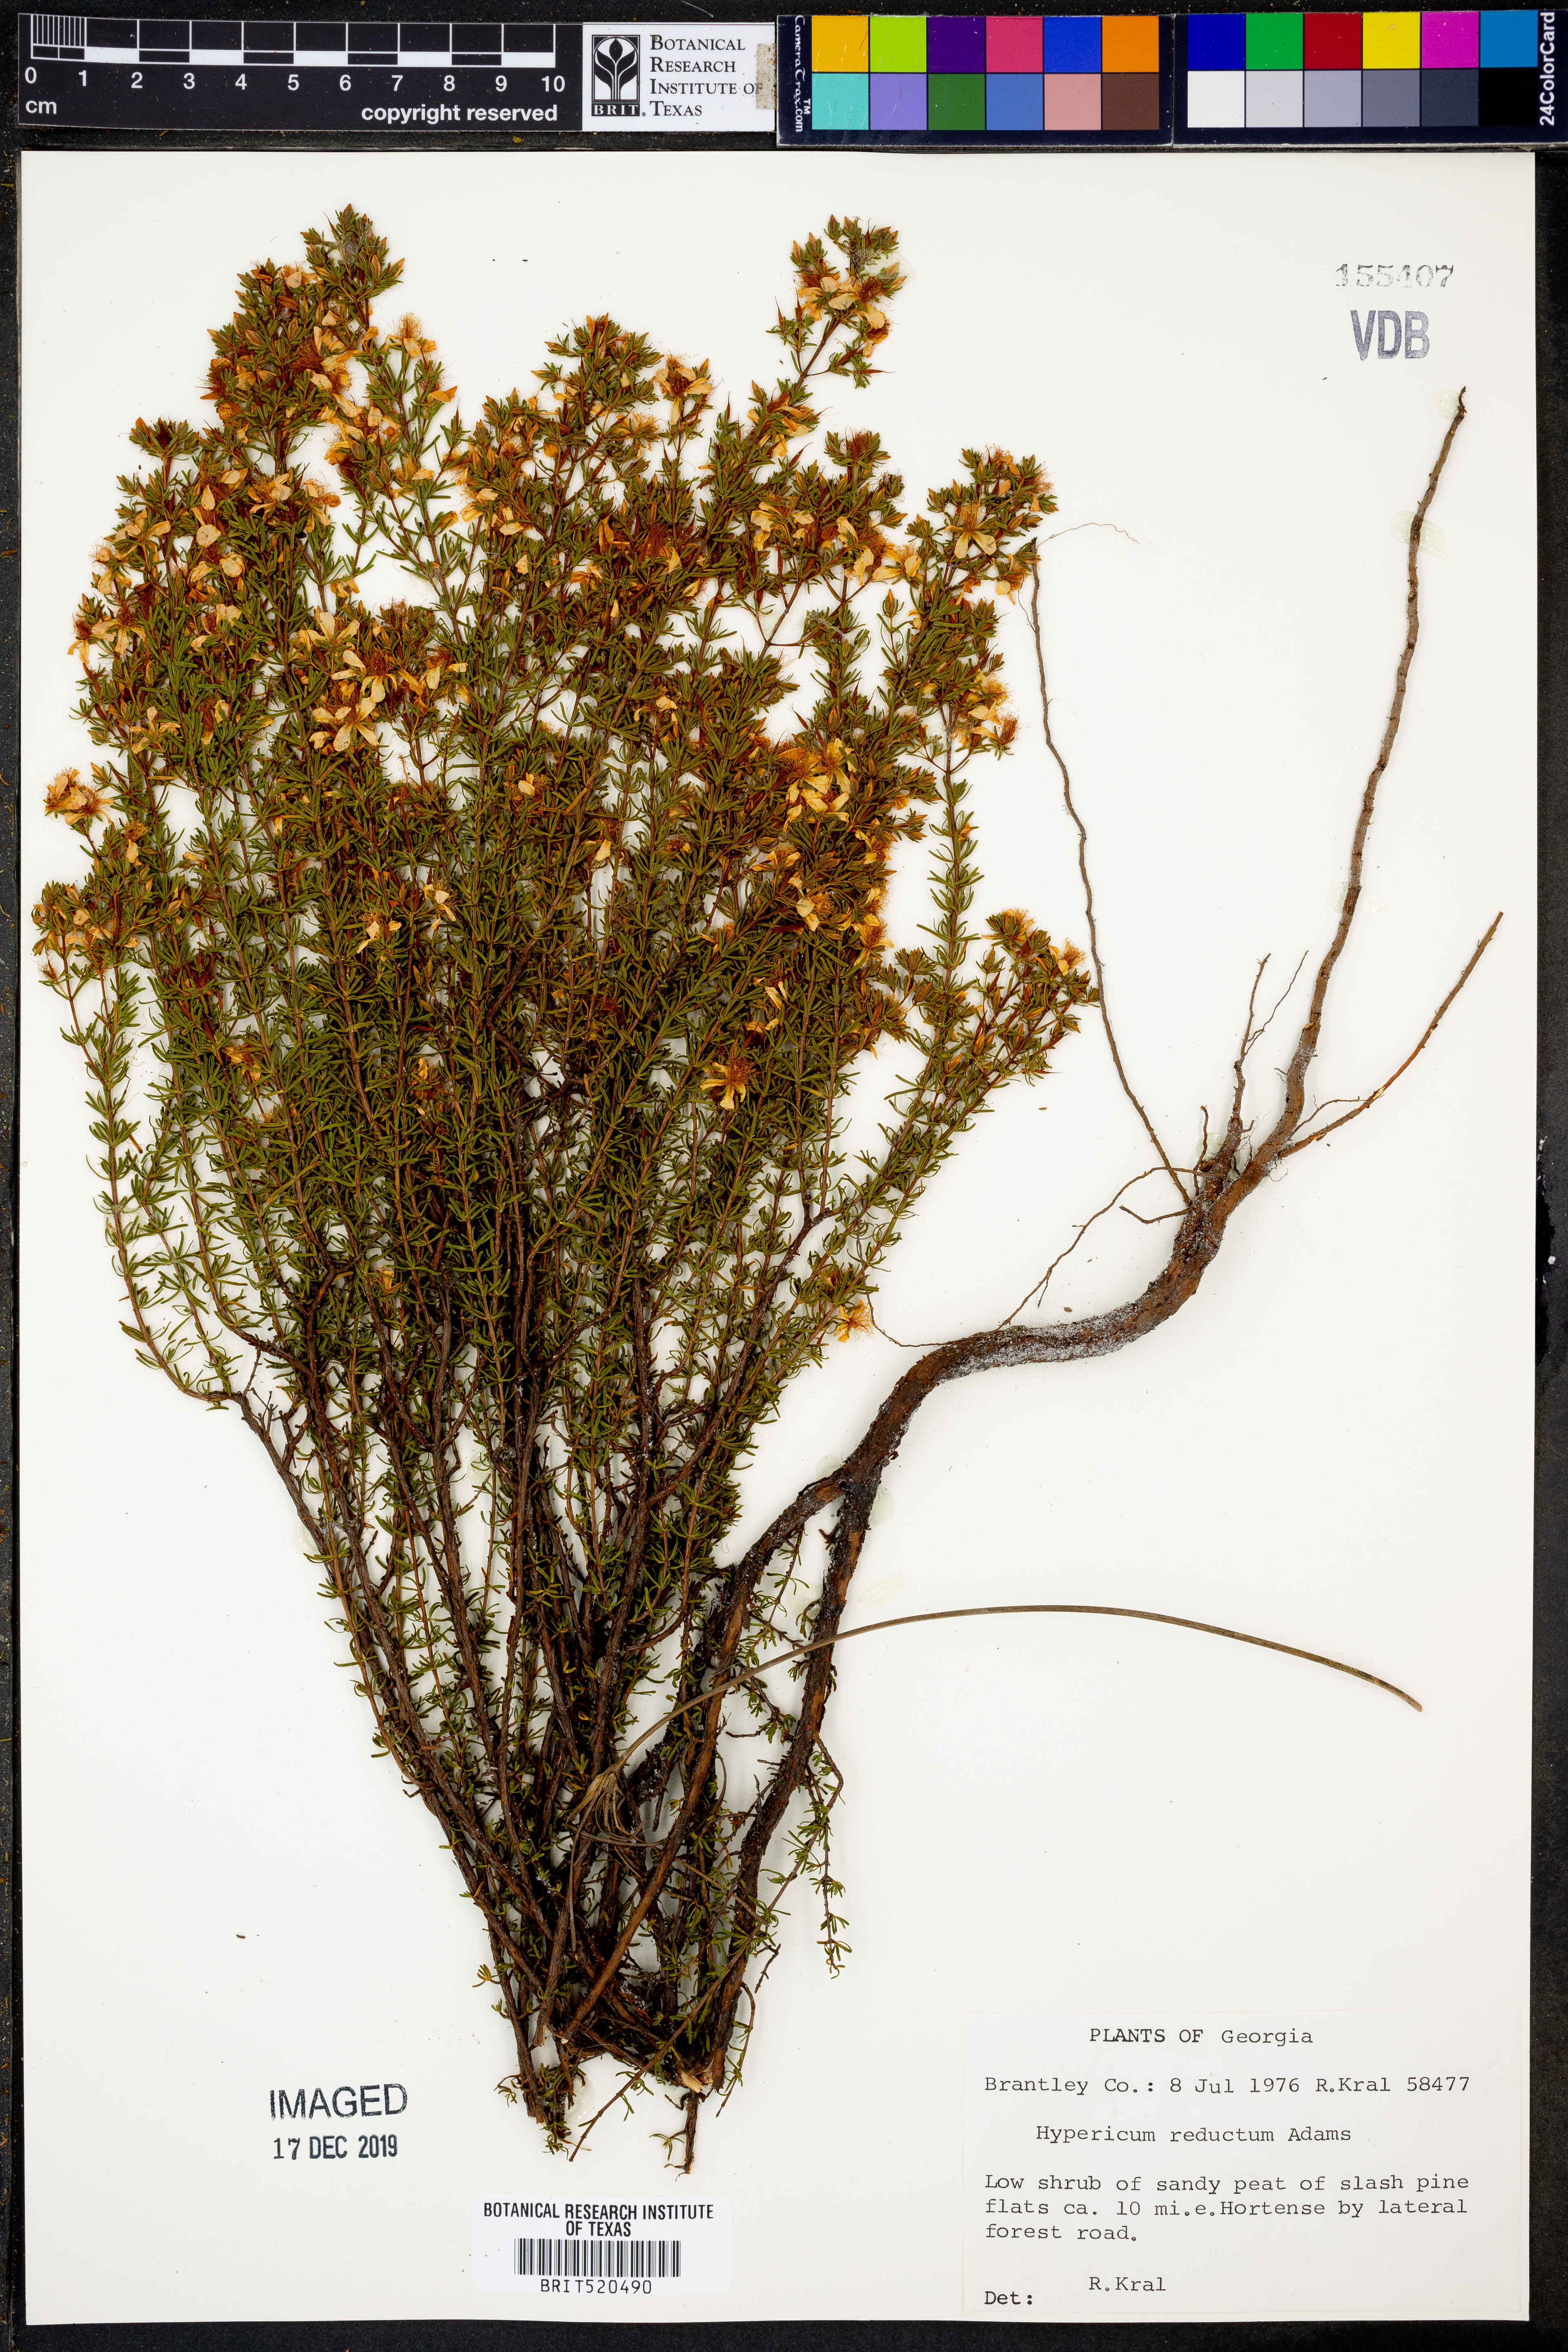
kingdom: Plantae
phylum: Tracheophyta
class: Magnoliopsida
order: Malpighiales
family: Hypericaceae
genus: Hypericum
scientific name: Hypericum tenuifolium
